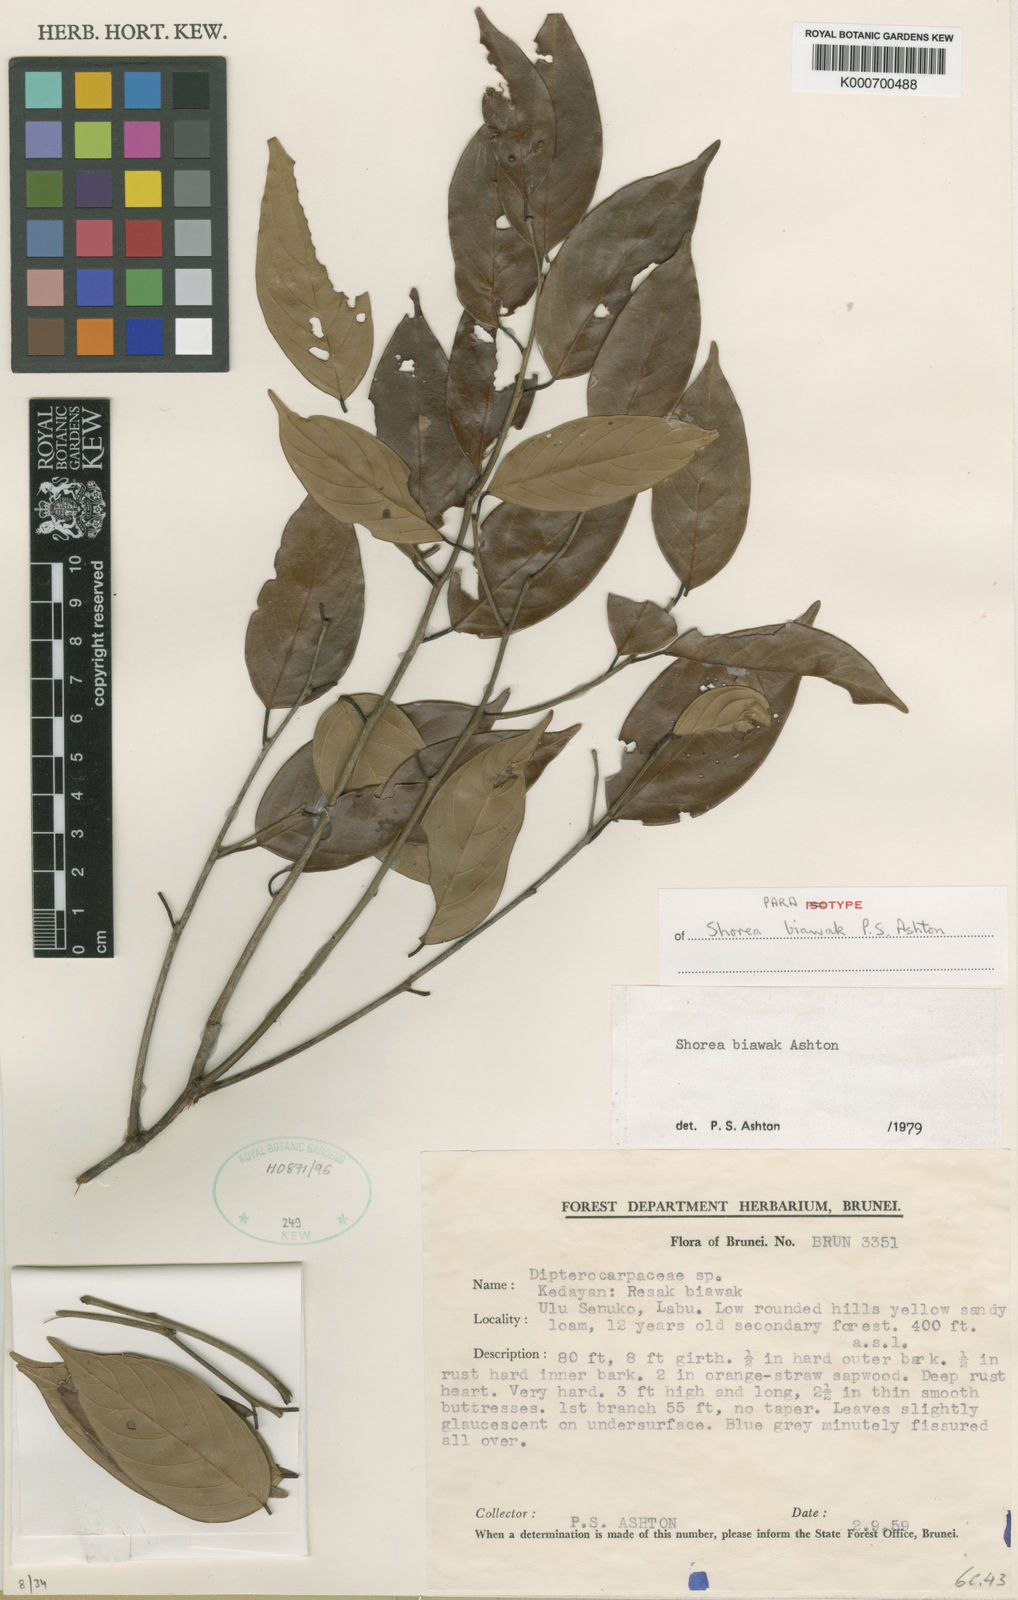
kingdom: Plantae
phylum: Tracheophyta
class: Magnoliopsida
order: Malvales
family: Dipterocarpaceae
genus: Shorea
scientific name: Shorea biawak
